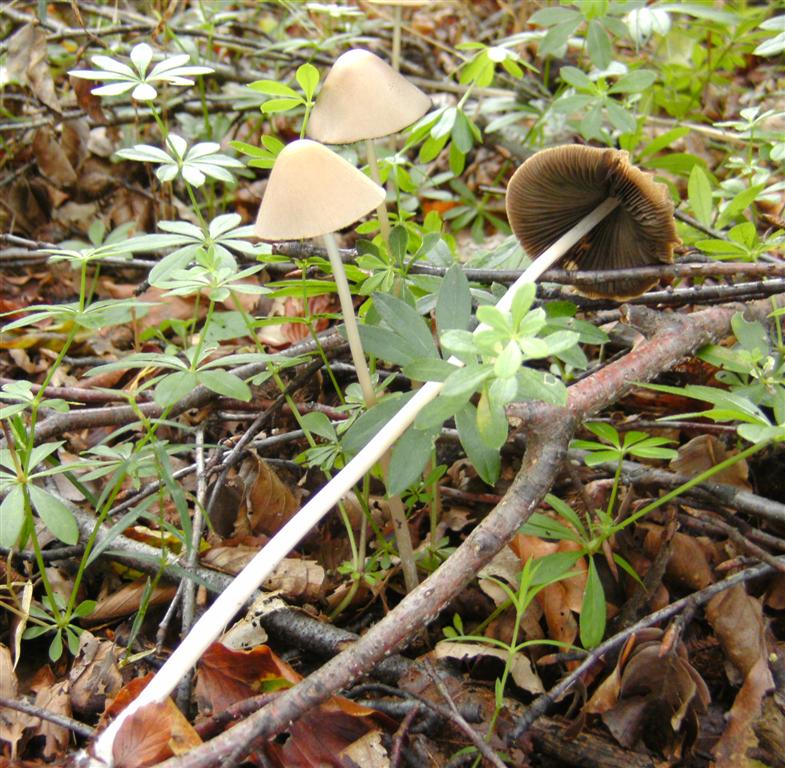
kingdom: Fungi
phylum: Basidiomycota
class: Agaricomycetes
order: Agaricales
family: Psathyrellaceae
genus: Parasola
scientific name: Parasola conopilea
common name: kegle-hjulhat
